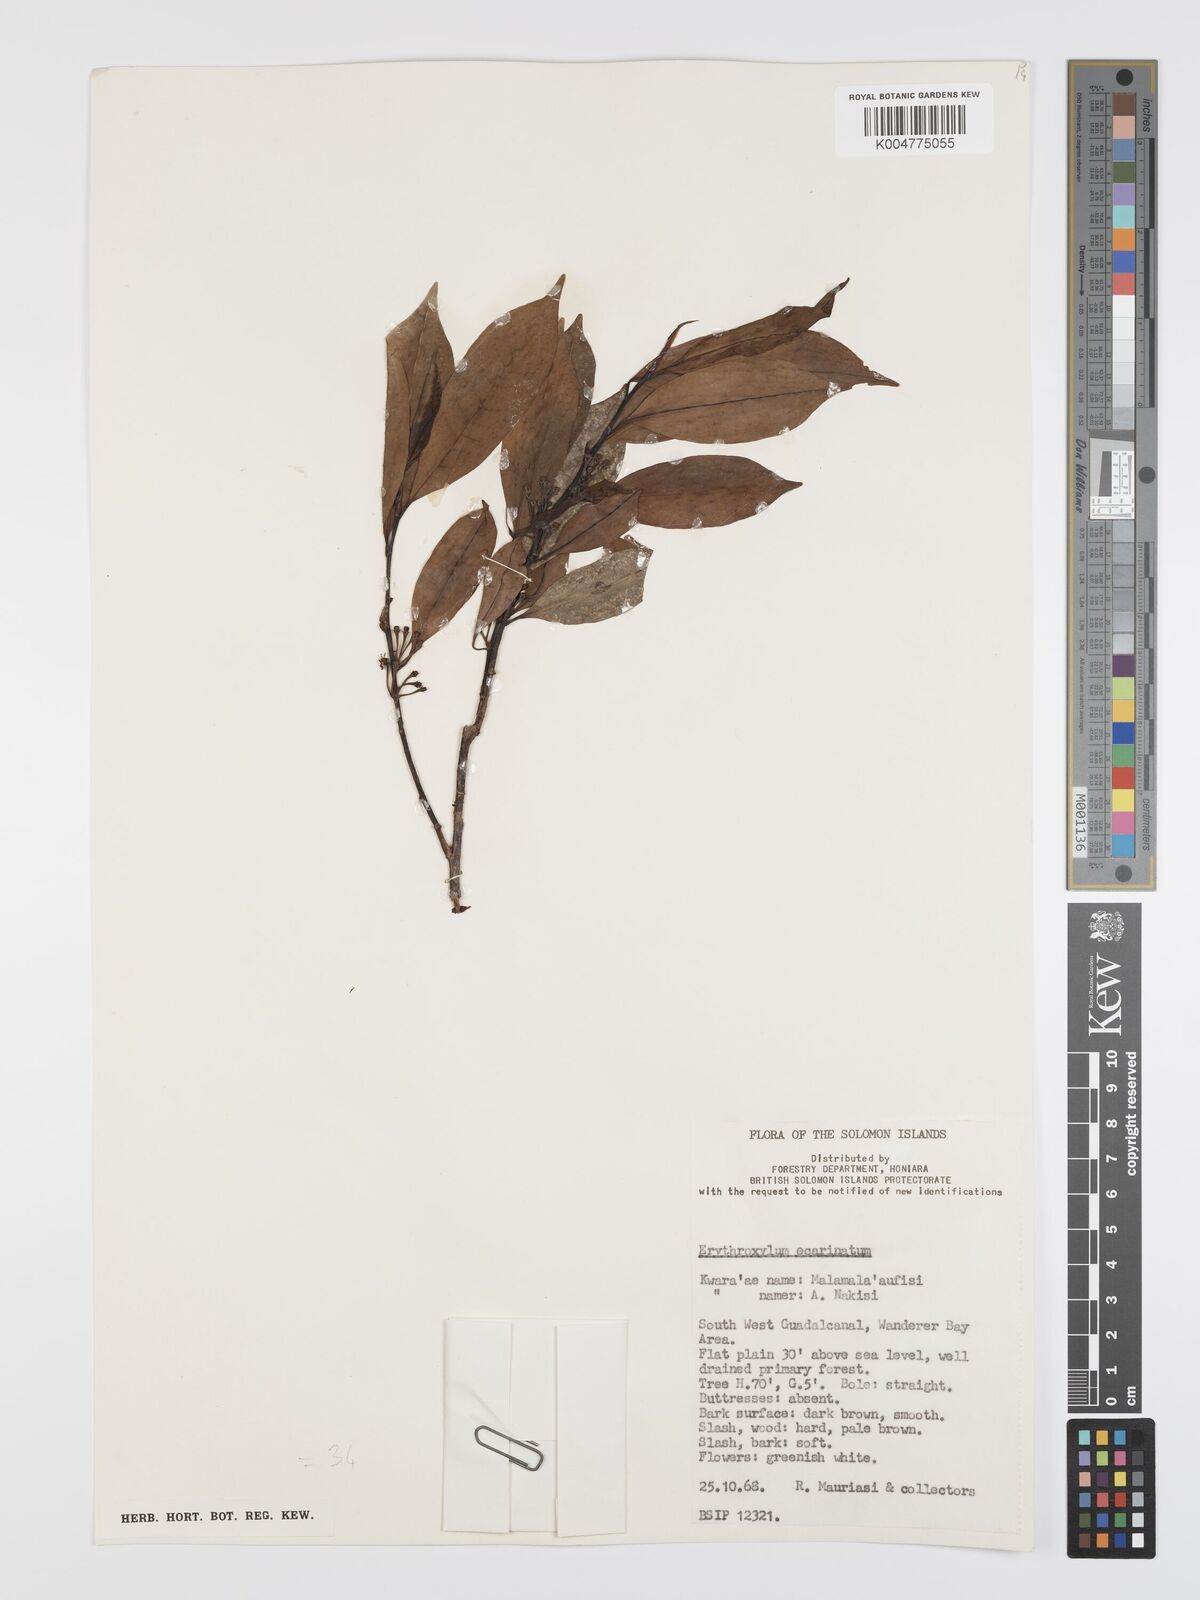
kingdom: Plantae
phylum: Tracheophyta
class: Magnoliopsida
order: Malpighiales
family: Erythroxylaceae
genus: Erythroxylum
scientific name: Erythroxylum ecarinatum
